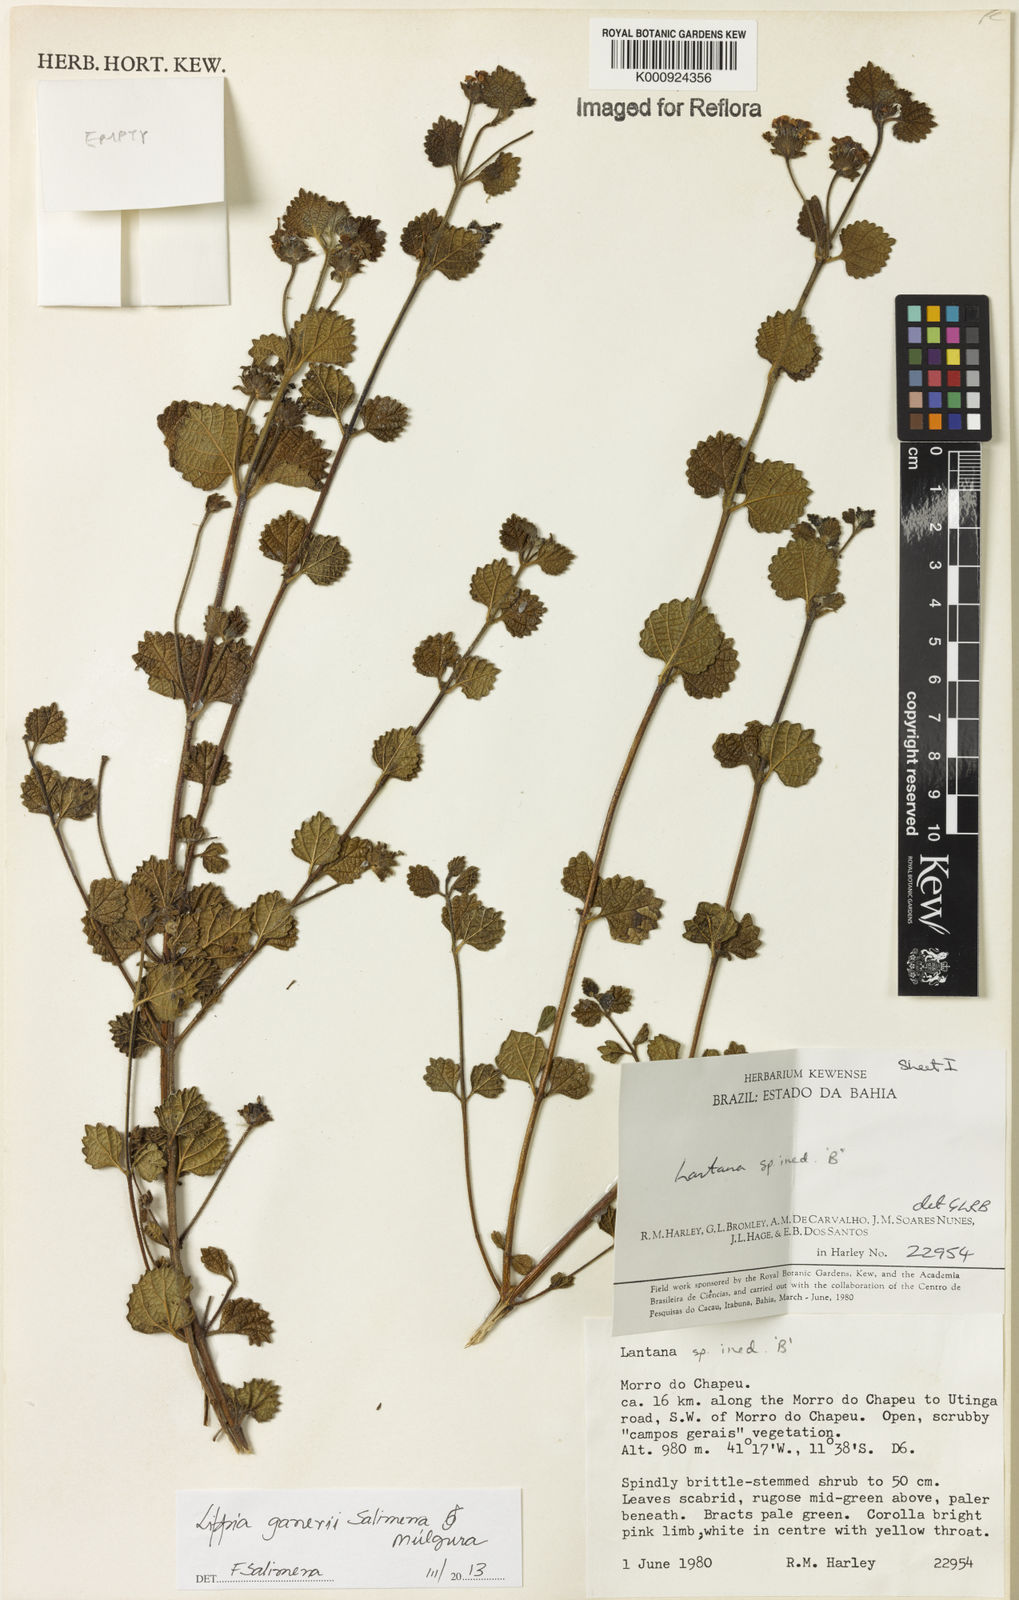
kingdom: Plantae
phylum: Tracheophyta
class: Magnoliopsida
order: Lamiales
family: Verbenaceae
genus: Lippia
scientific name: Lippia
